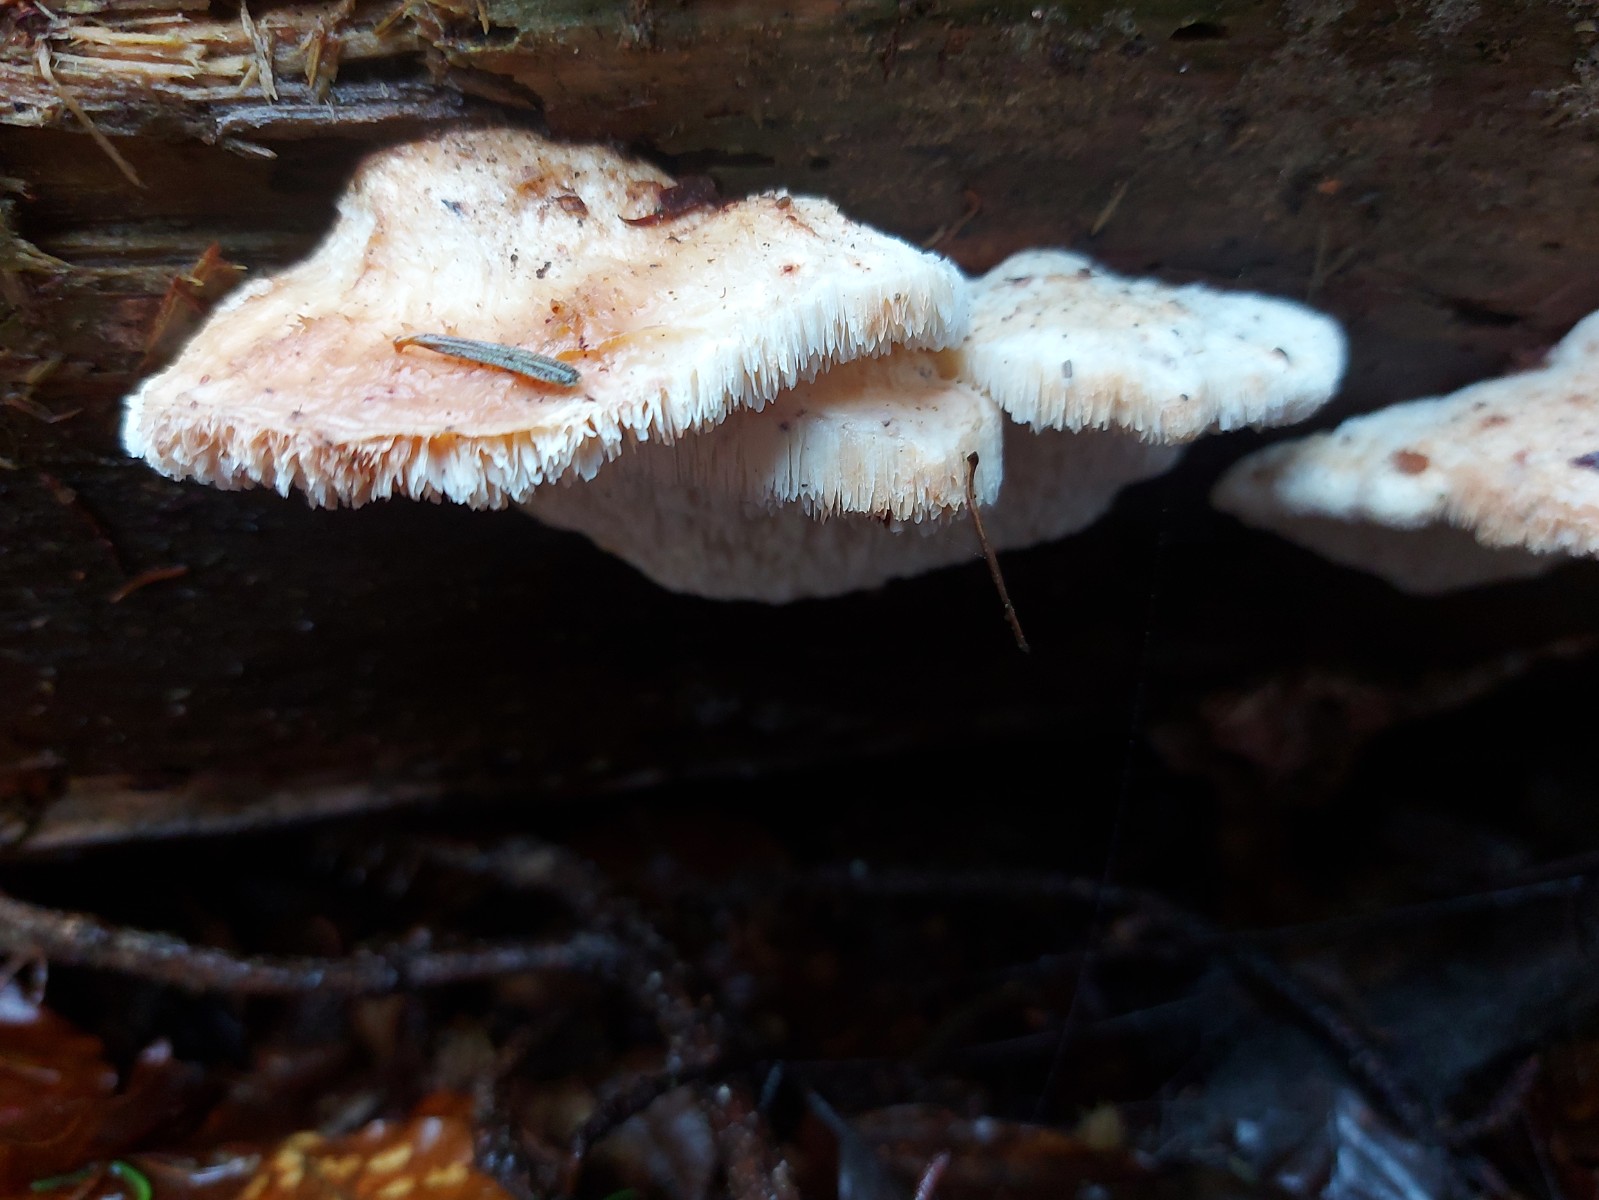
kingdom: Fungi
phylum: Basidiomycota
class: Agaricomycetes
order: Polyporales
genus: Fuscopostia
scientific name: Fuscopostia fragilis
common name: brunende kødporesvamp
